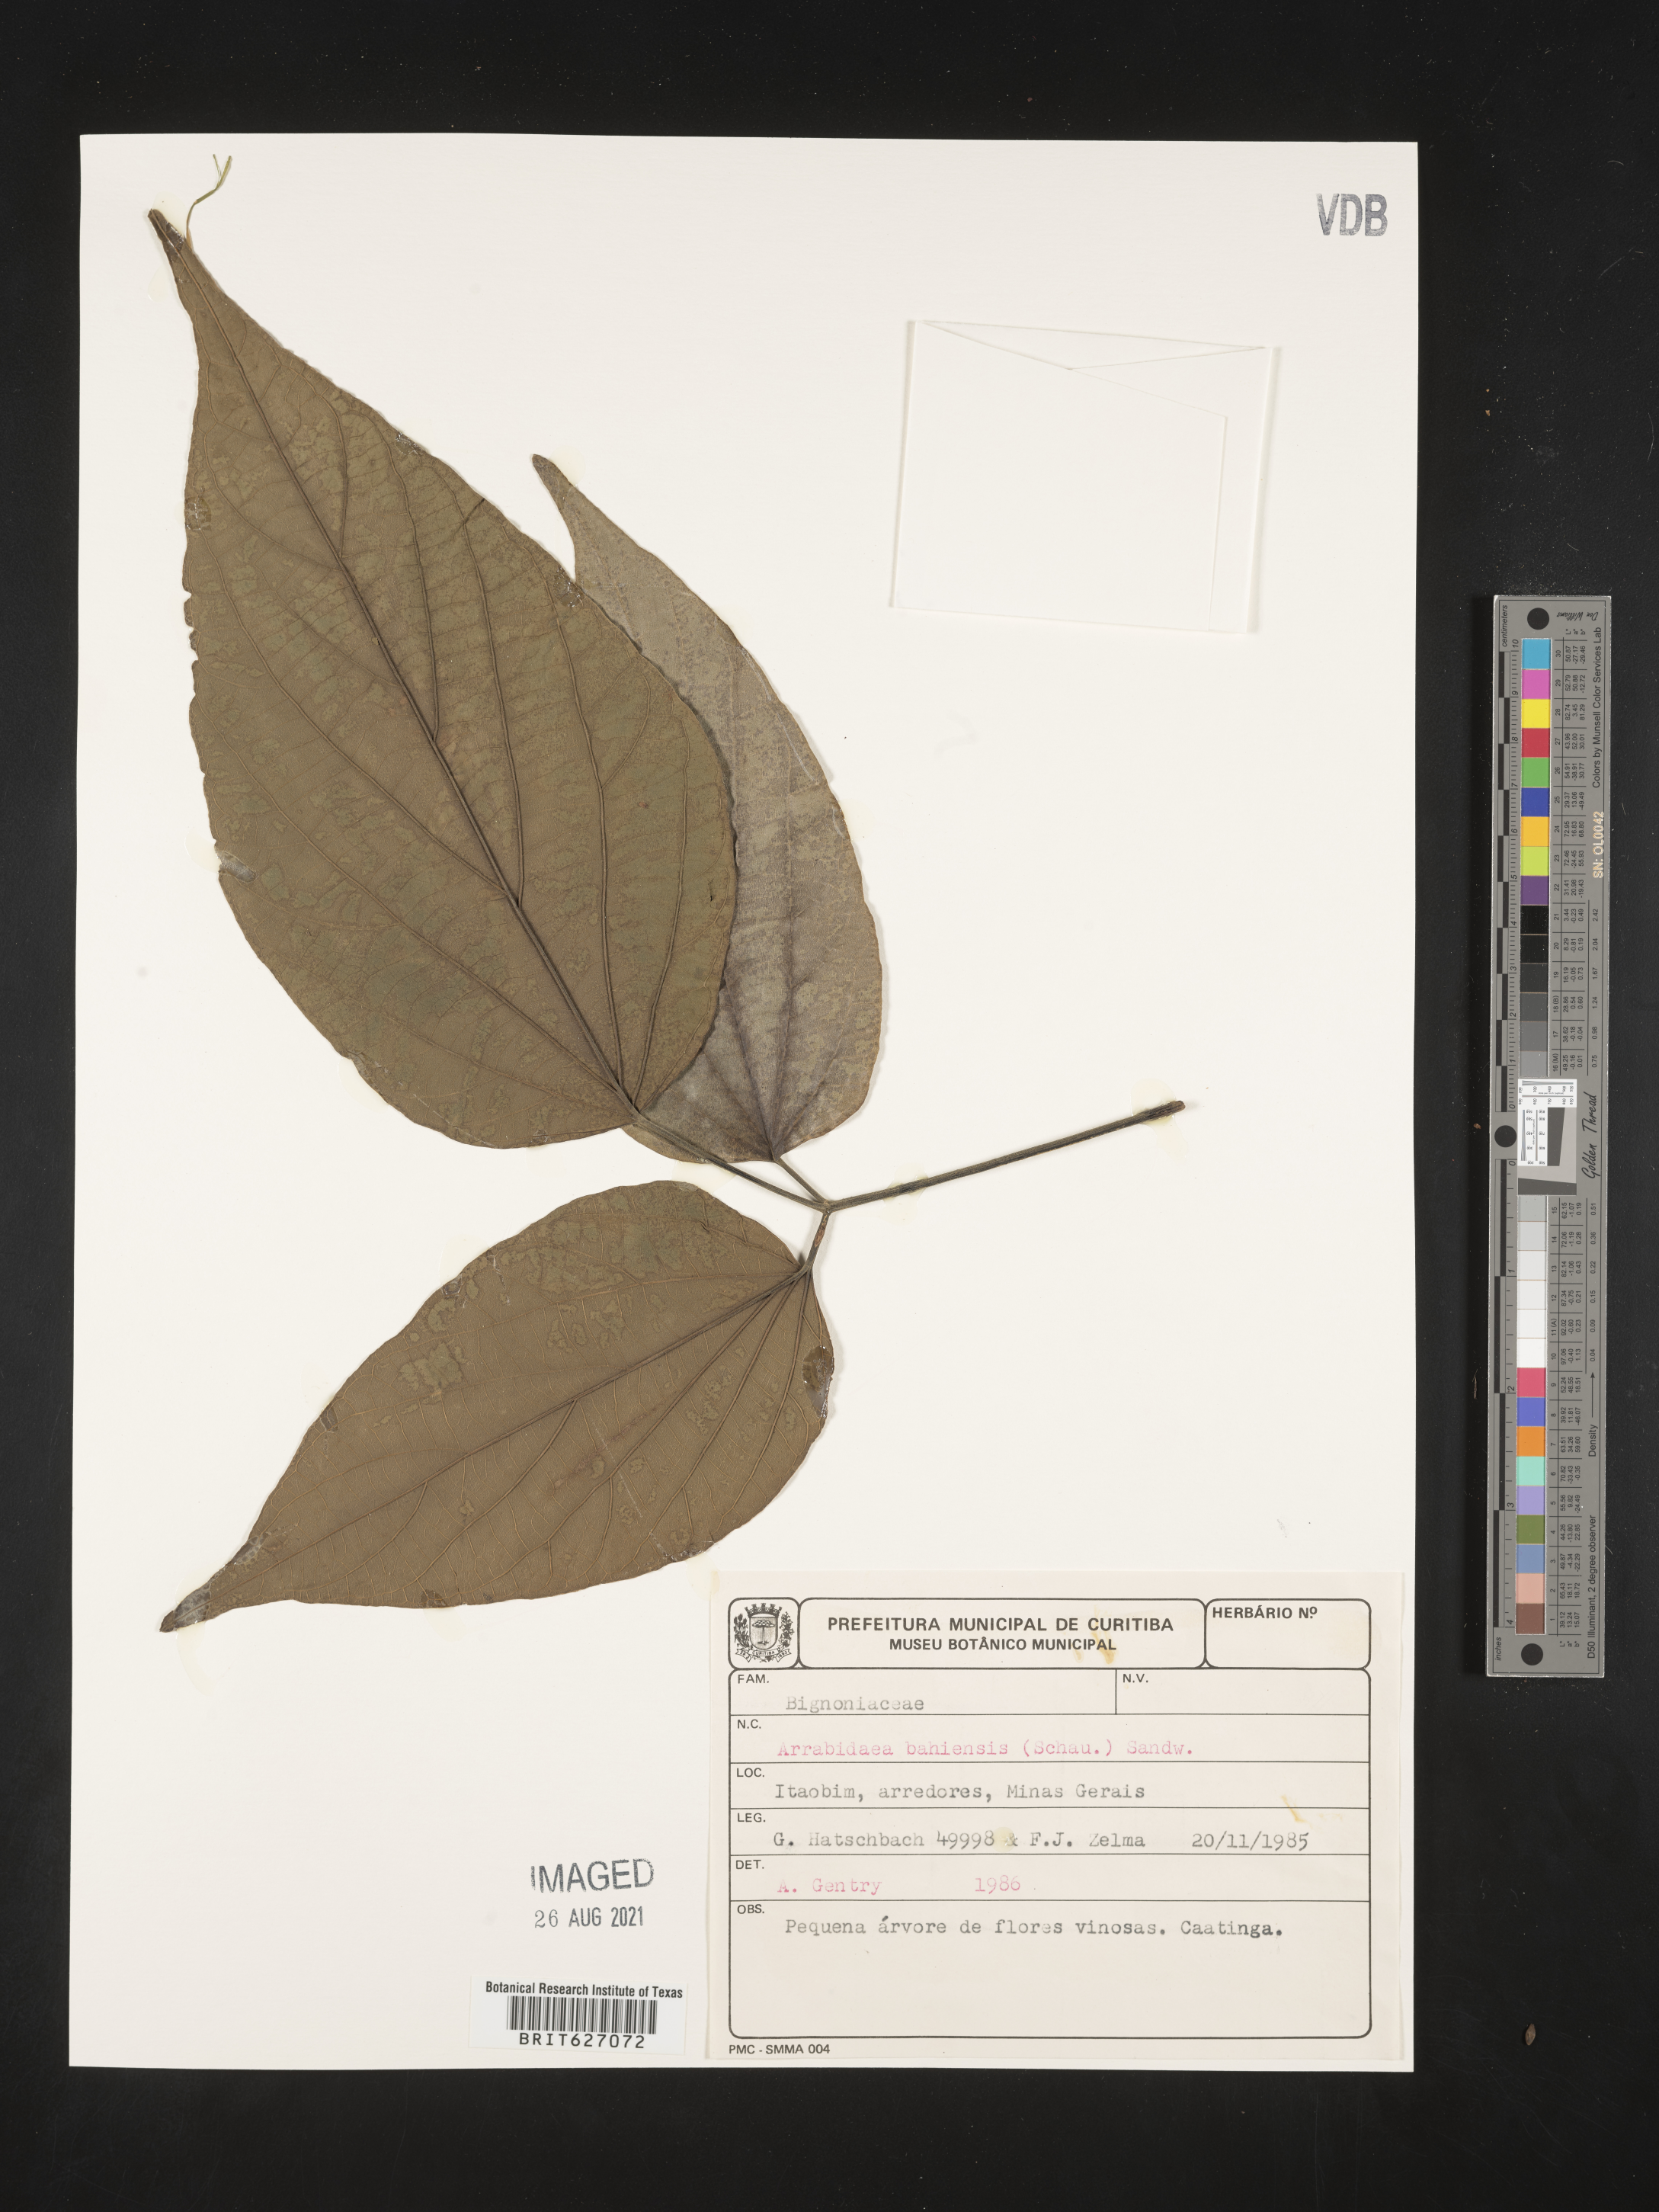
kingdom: Plantae
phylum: Tracheophyta
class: Magnoliopsida
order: Lamiales
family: Bignoniaceae
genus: Fridericia
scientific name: Fridericia bahiensis
